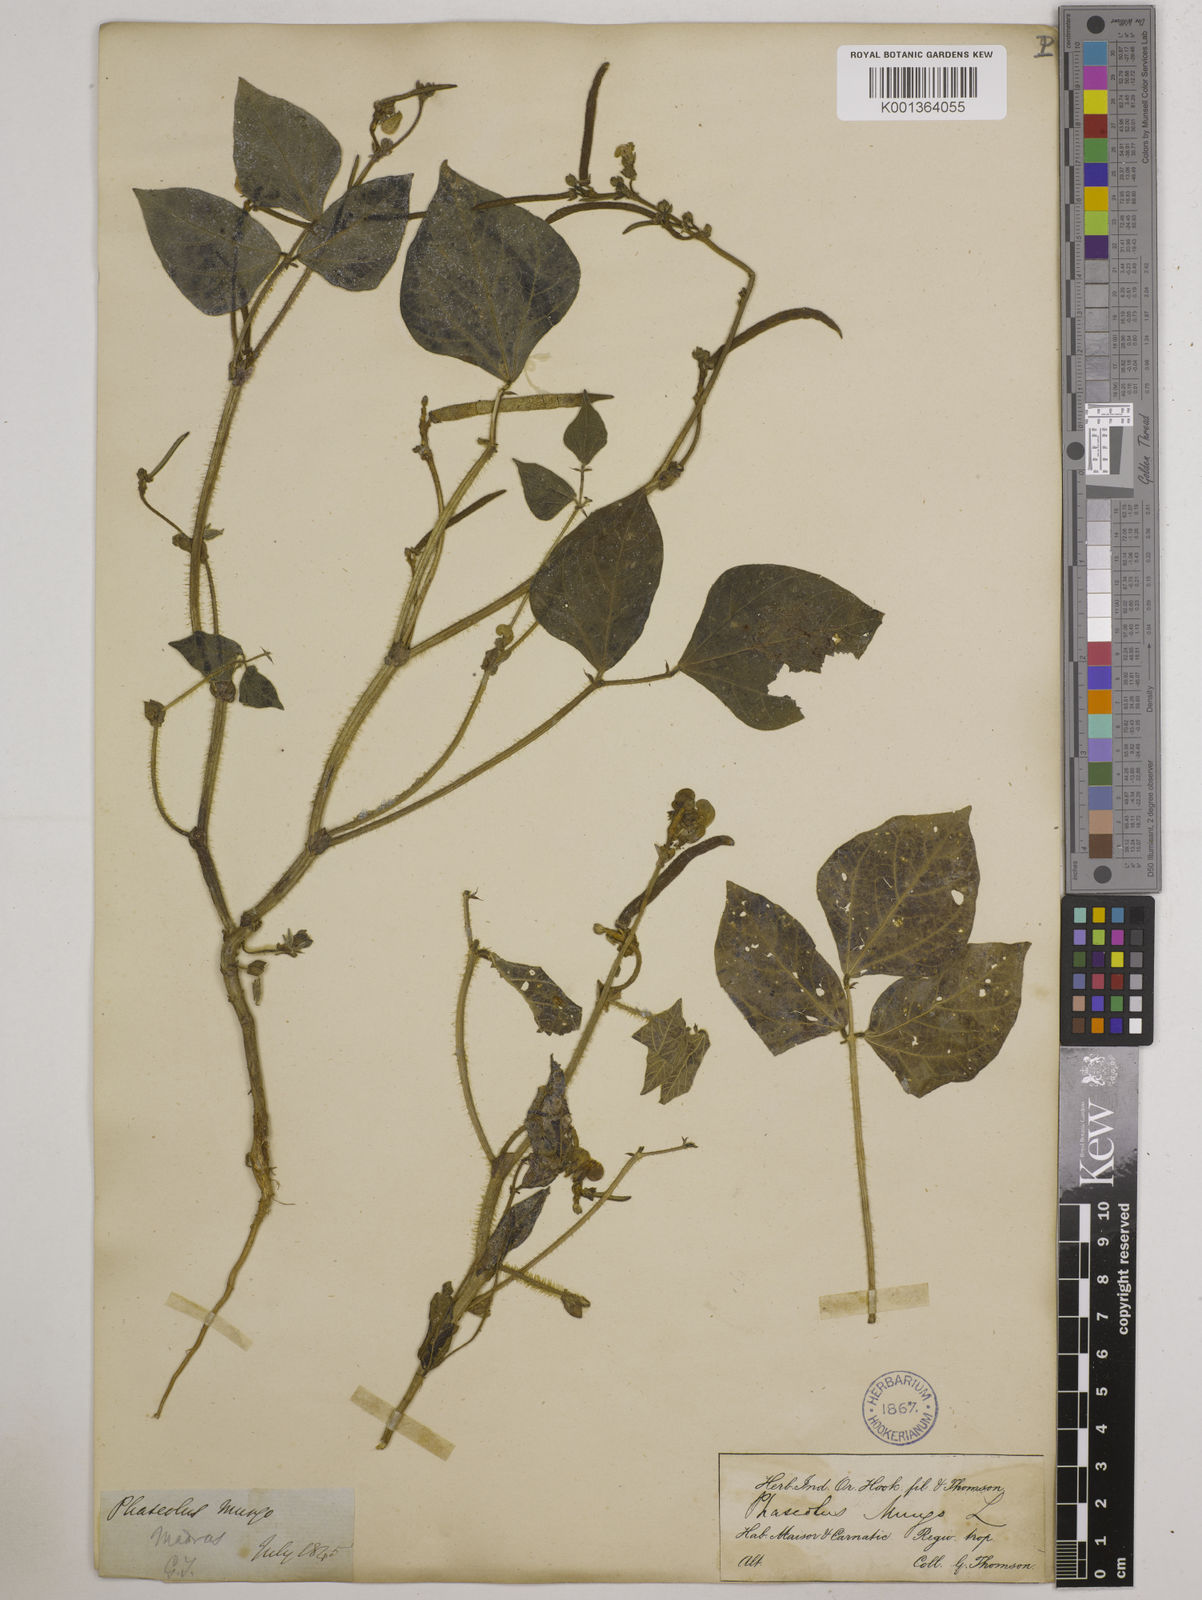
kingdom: Plantae
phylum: Tracheophyta
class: Magnoliopsida
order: Fabales
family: Fabaceae
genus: Vigna
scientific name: Vigna radiata
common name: Mung-bean
